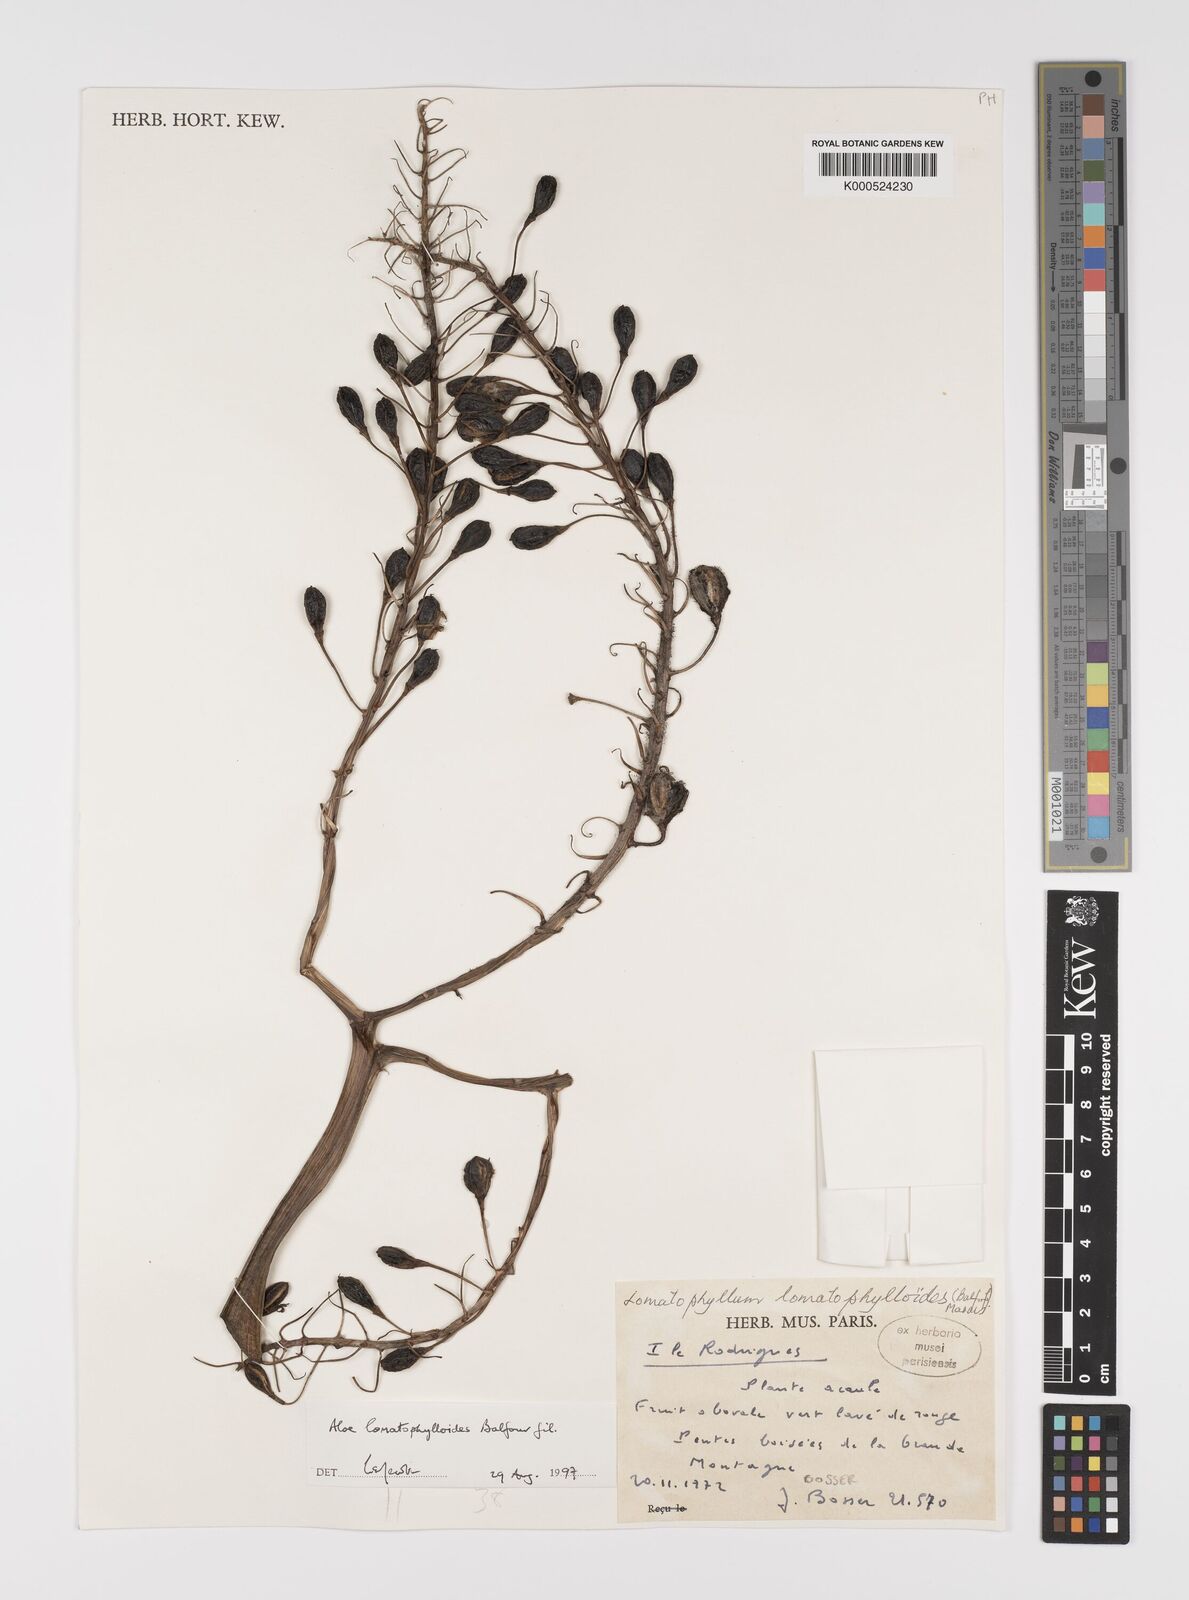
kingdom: Plantae
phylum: Tracheophyta
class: Liliopsida
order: Asparagales
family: Asphodelaceae
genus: Aloe
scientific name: Aloe lomatophylloides
